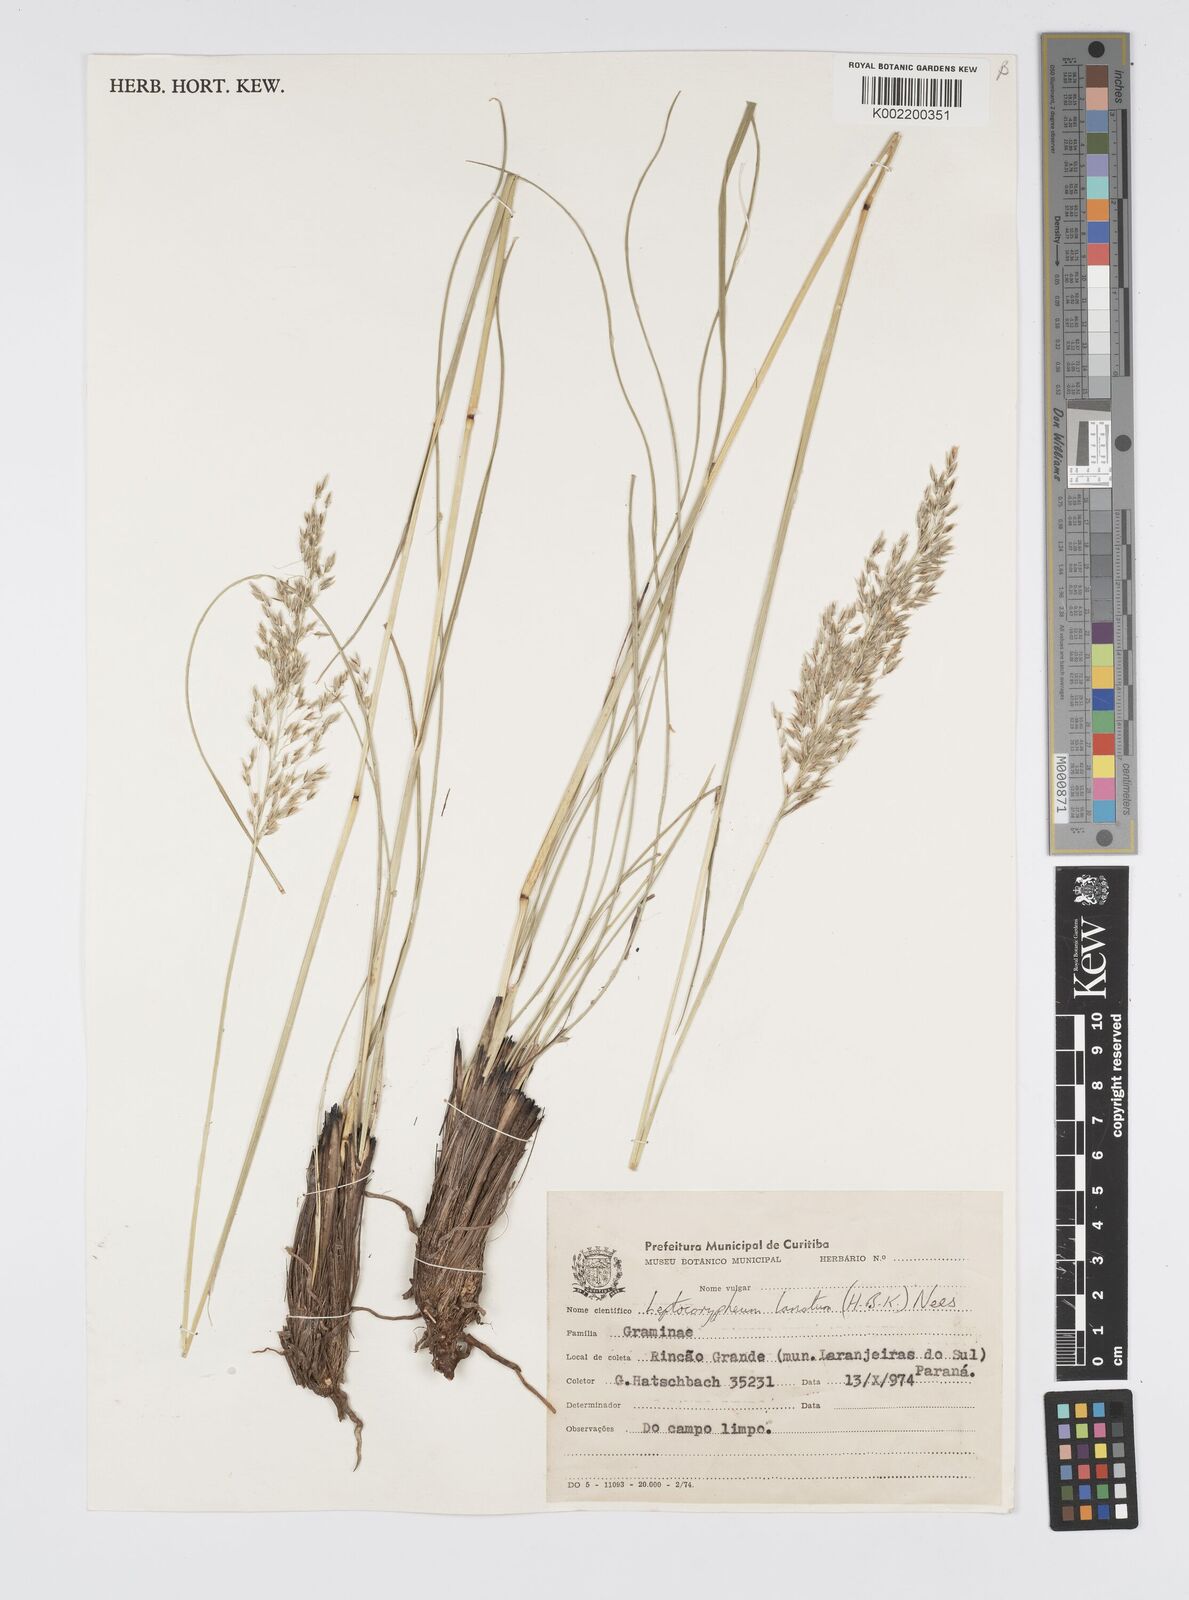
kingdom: Plantae
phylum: Tracheophyta
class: Liliopsida
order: Poales
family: Poaceae
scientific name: Poaceae
